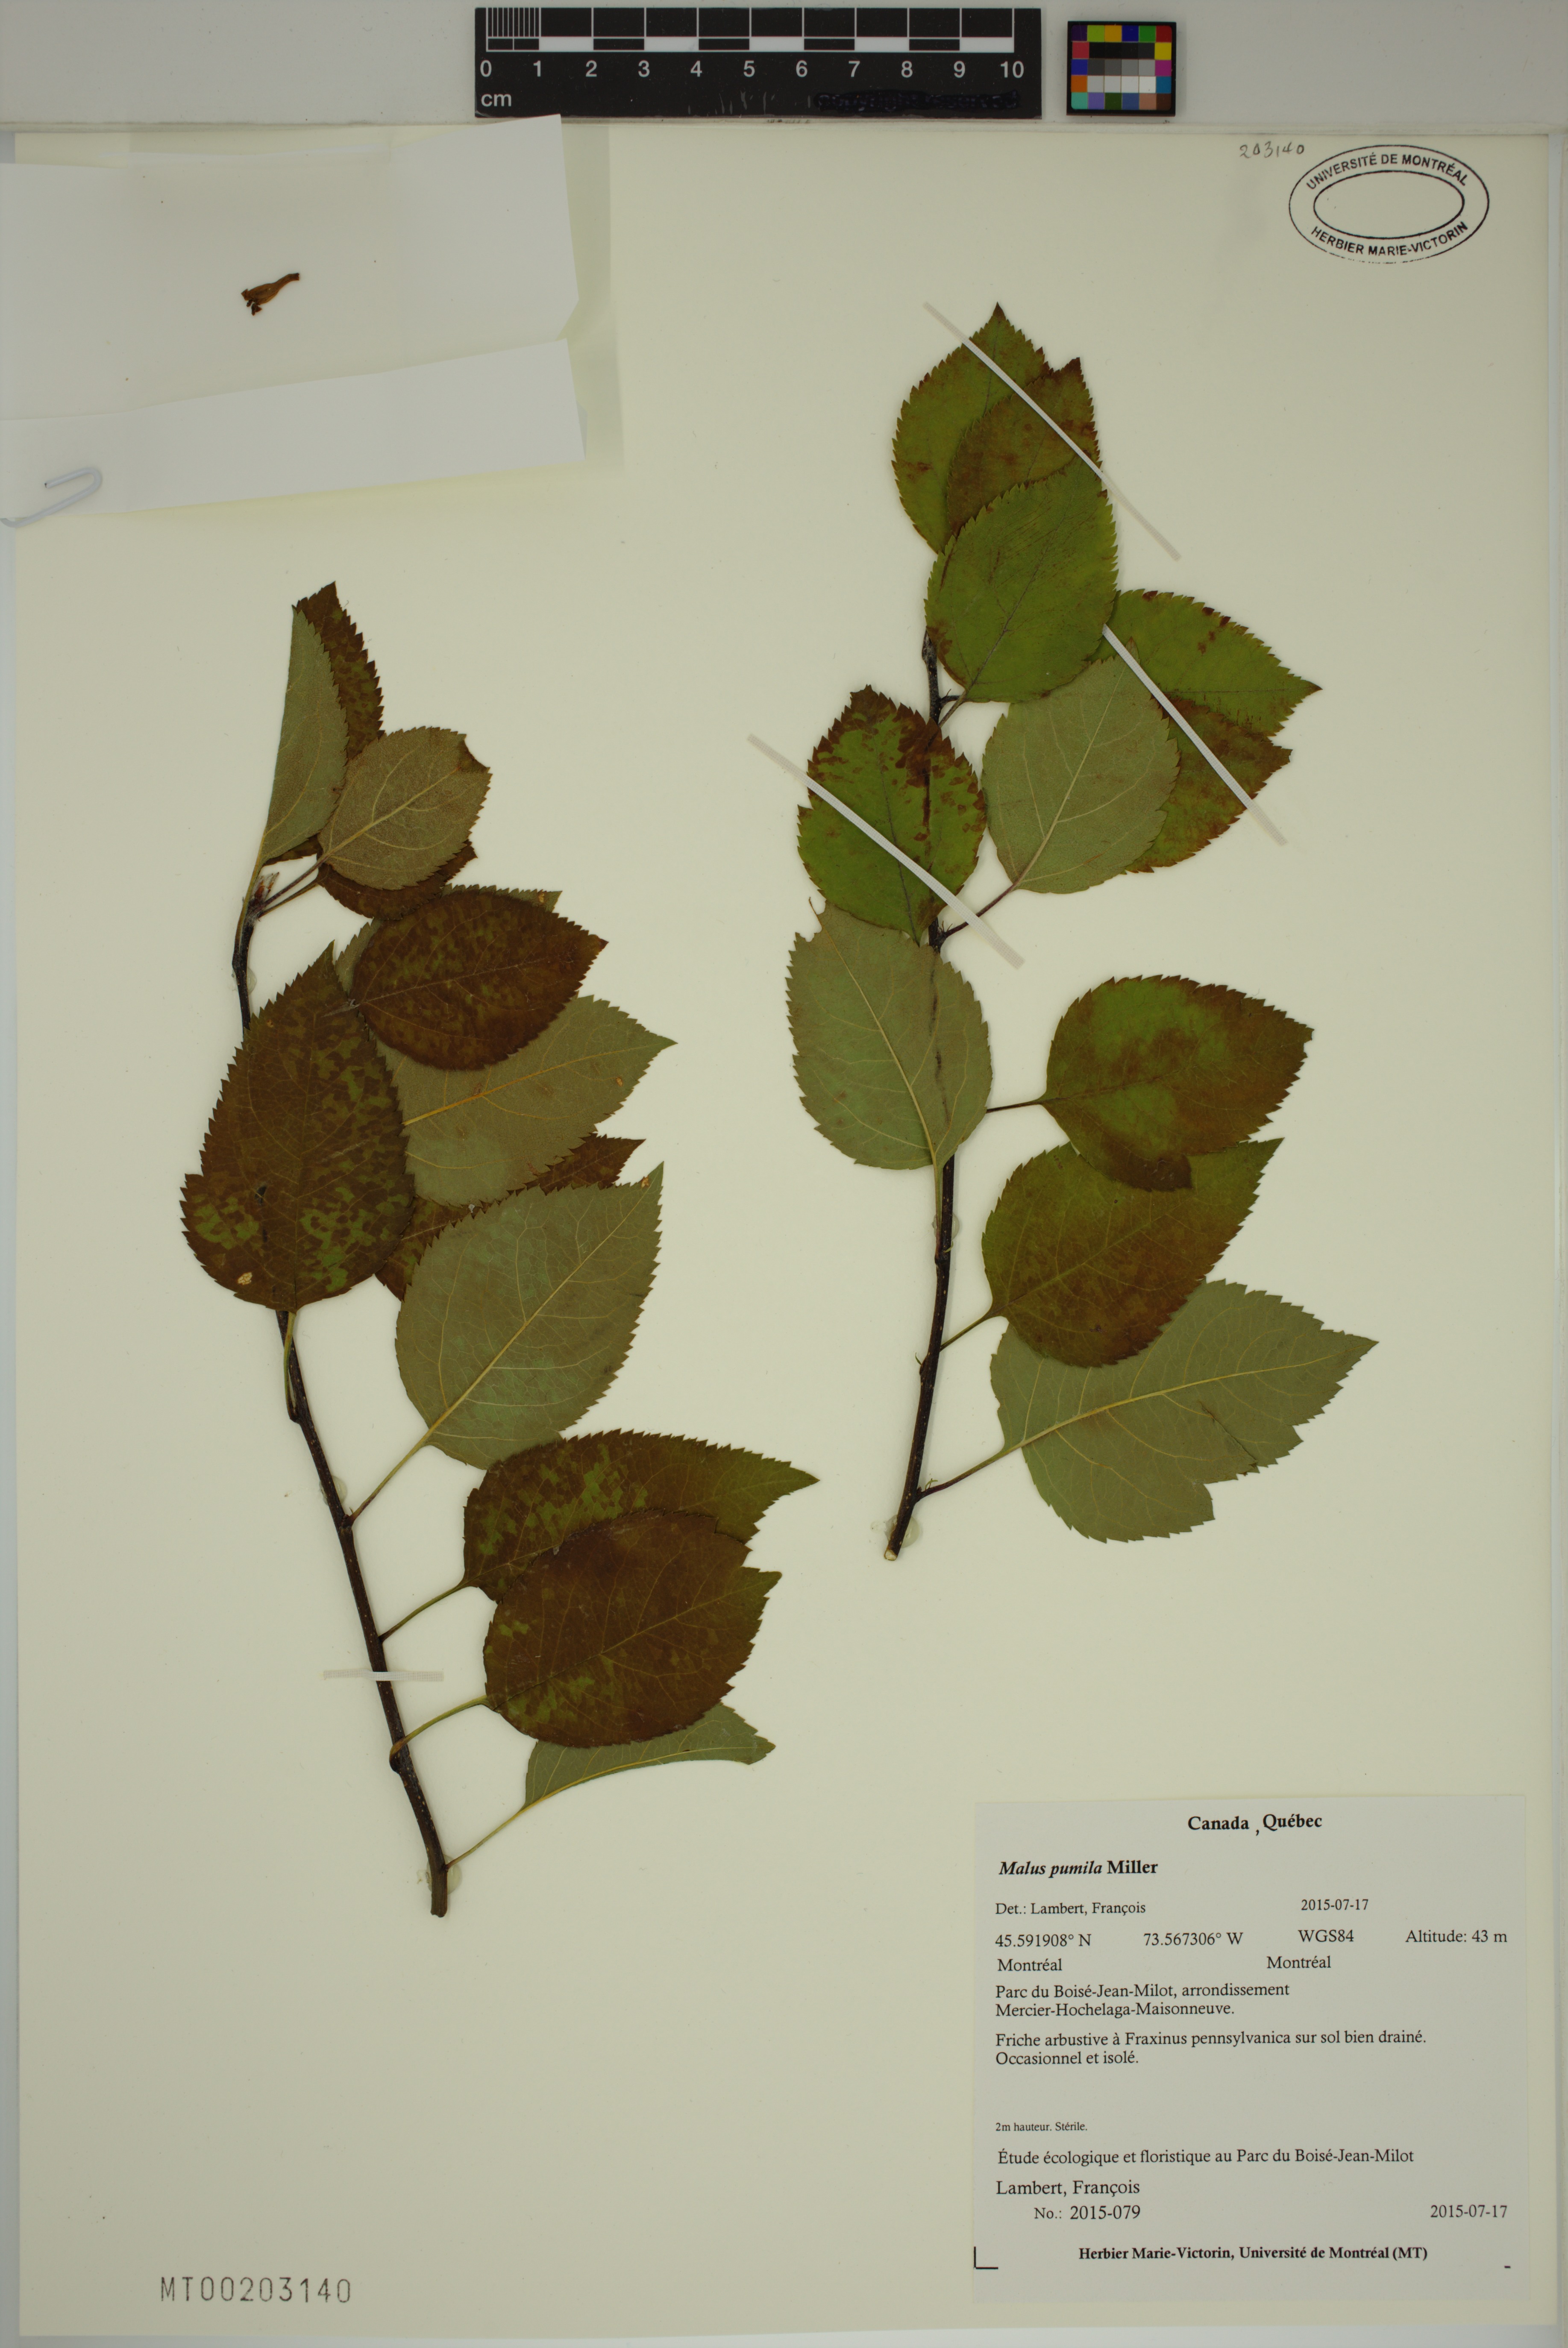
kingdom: Plantae
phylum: Tracheophyta
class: Magnoliopsida
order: Rosales
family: Rosaceae
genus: Malus
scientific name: Malus domestica
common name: Apple
